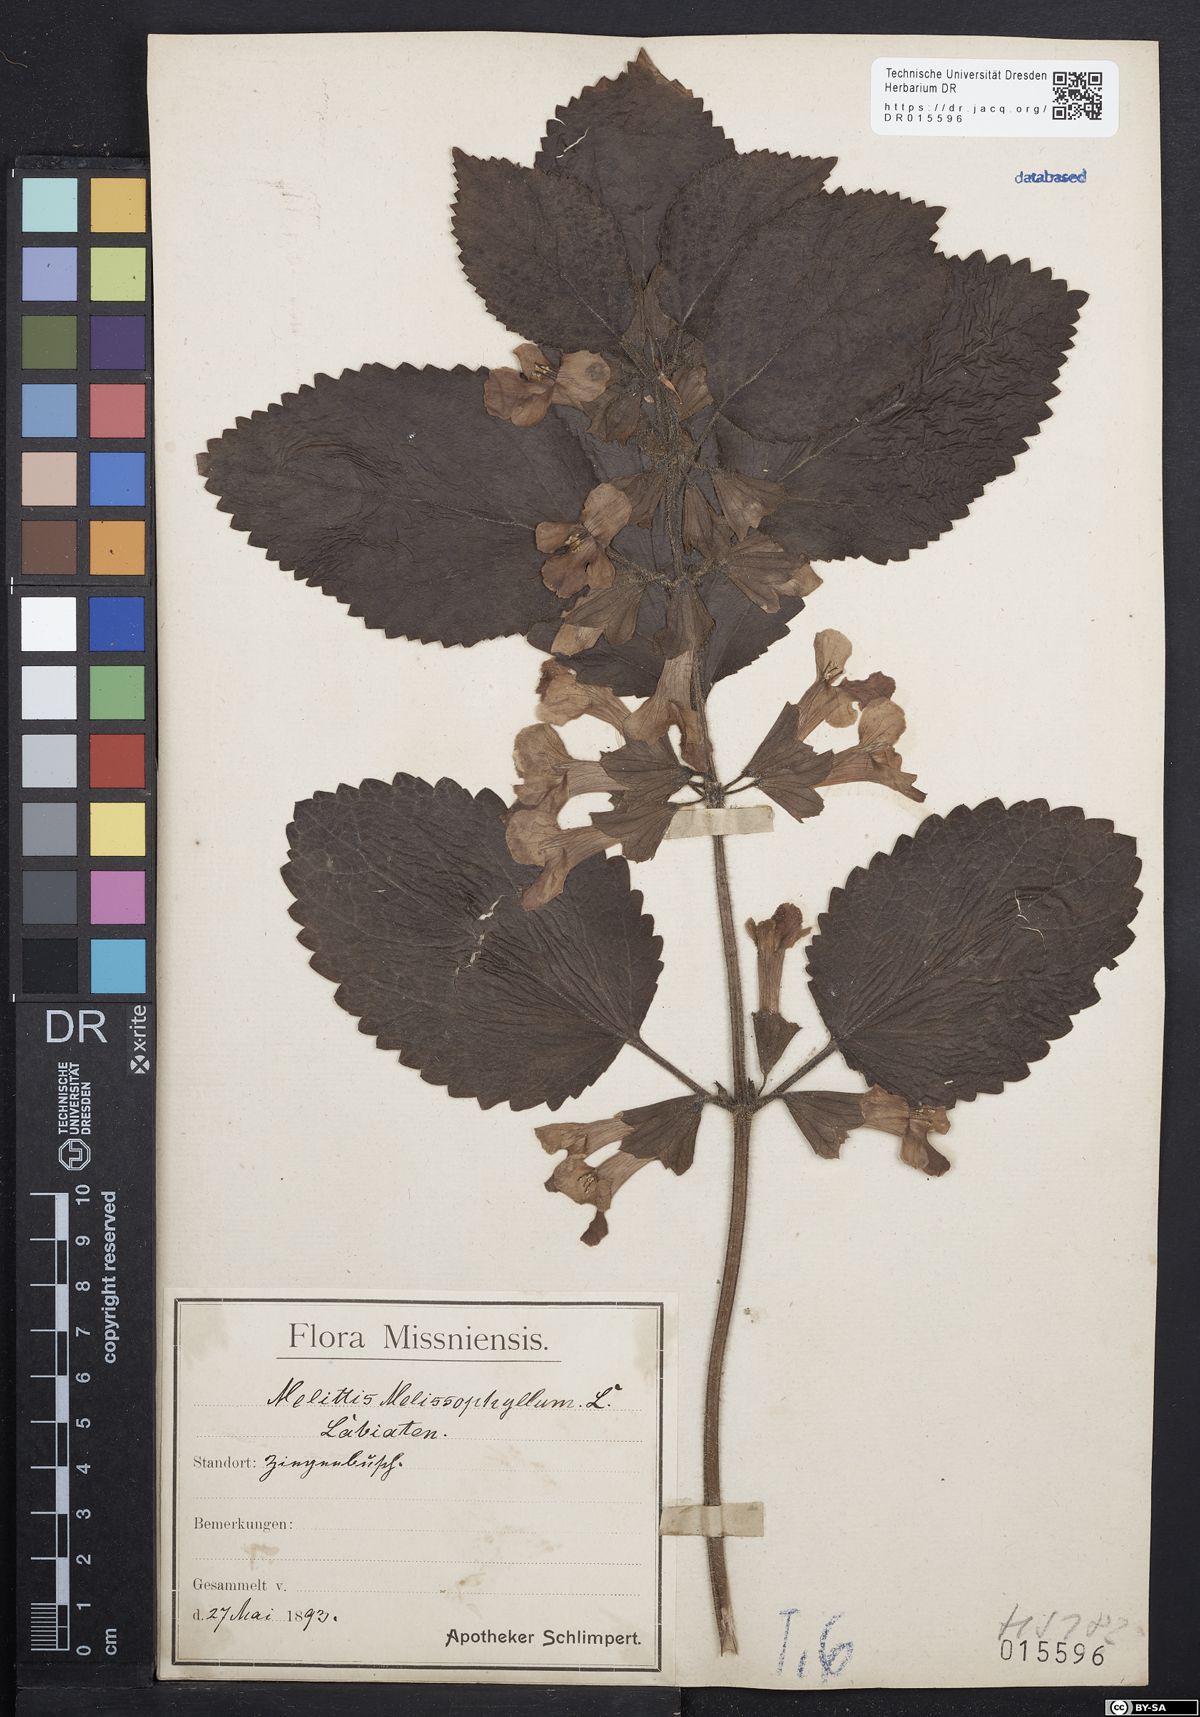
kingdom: Plantae
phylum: Tracheophyta
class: Magnoliopsida
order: Lamiales
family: Lamiaceae
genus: Melittis
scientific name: Melittis melissophyllum
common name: Bastard balm
